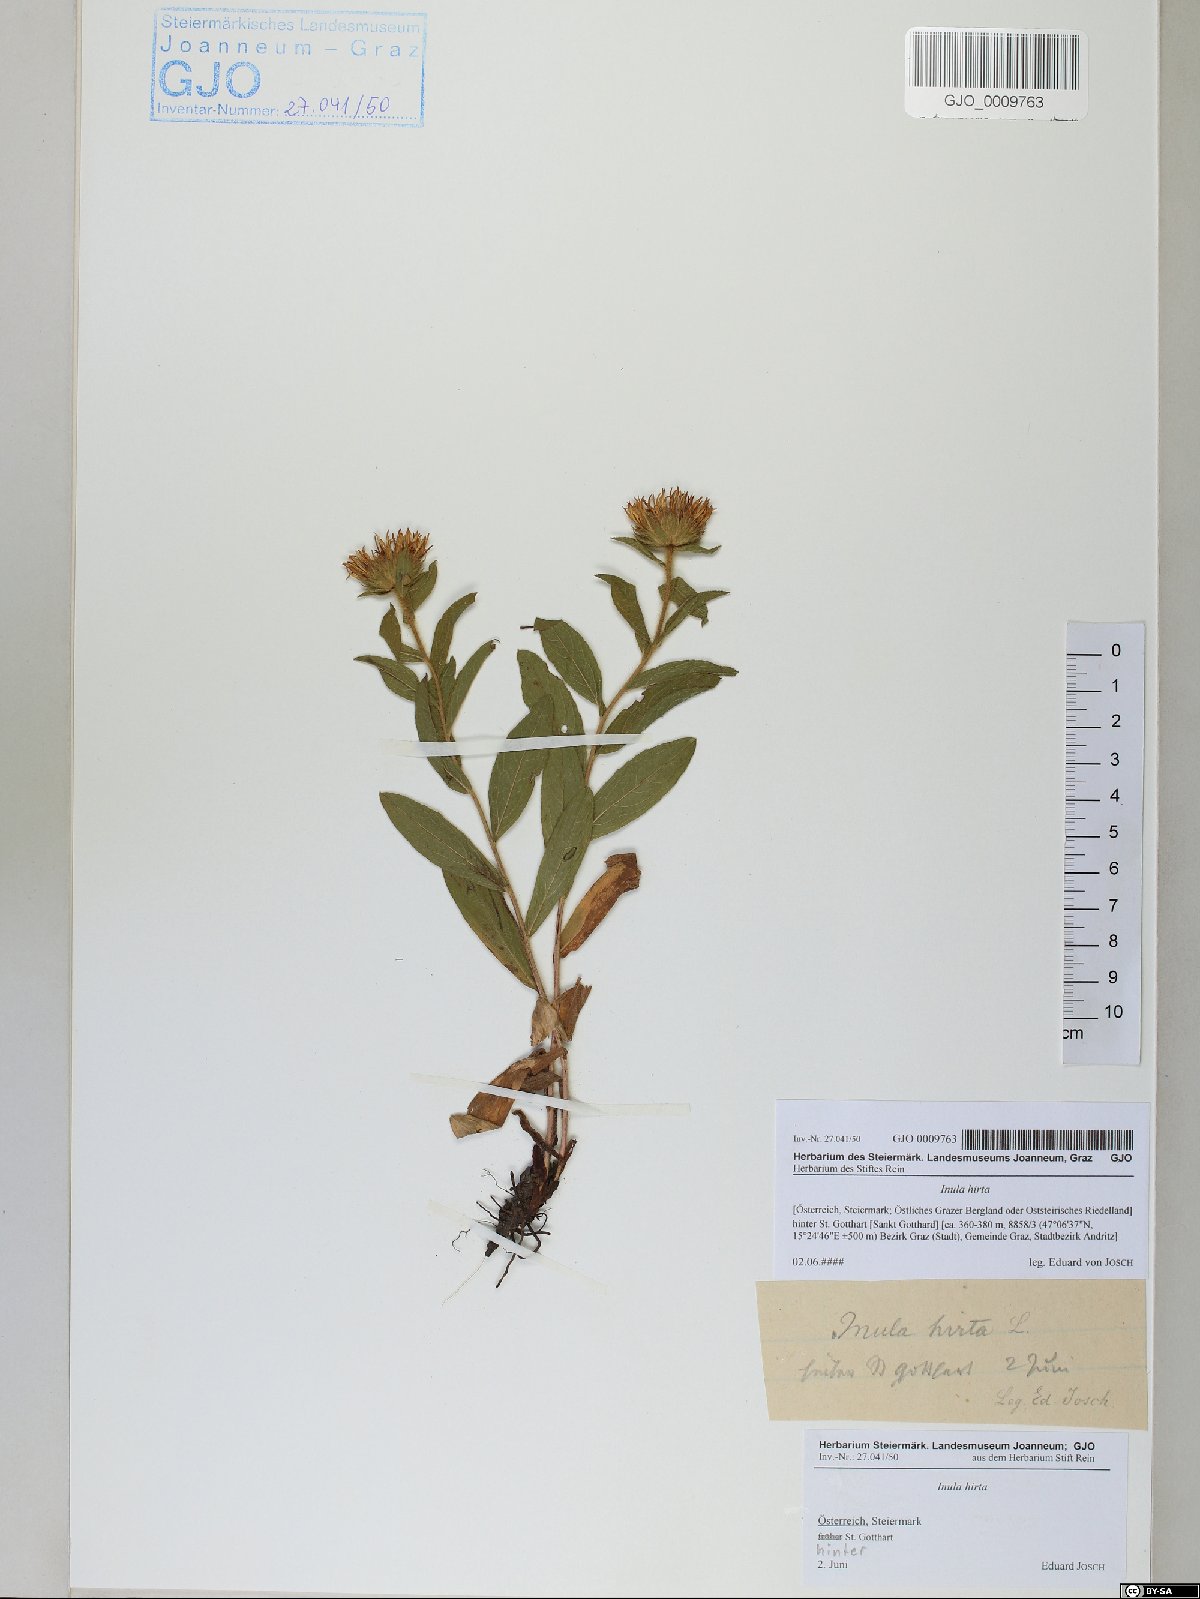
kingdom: Plantae
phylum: Tracheophyta
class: Magnoliopsida
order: Asterales
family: Asteraceae
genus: Pentanema
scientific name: Pentanema hirtum
